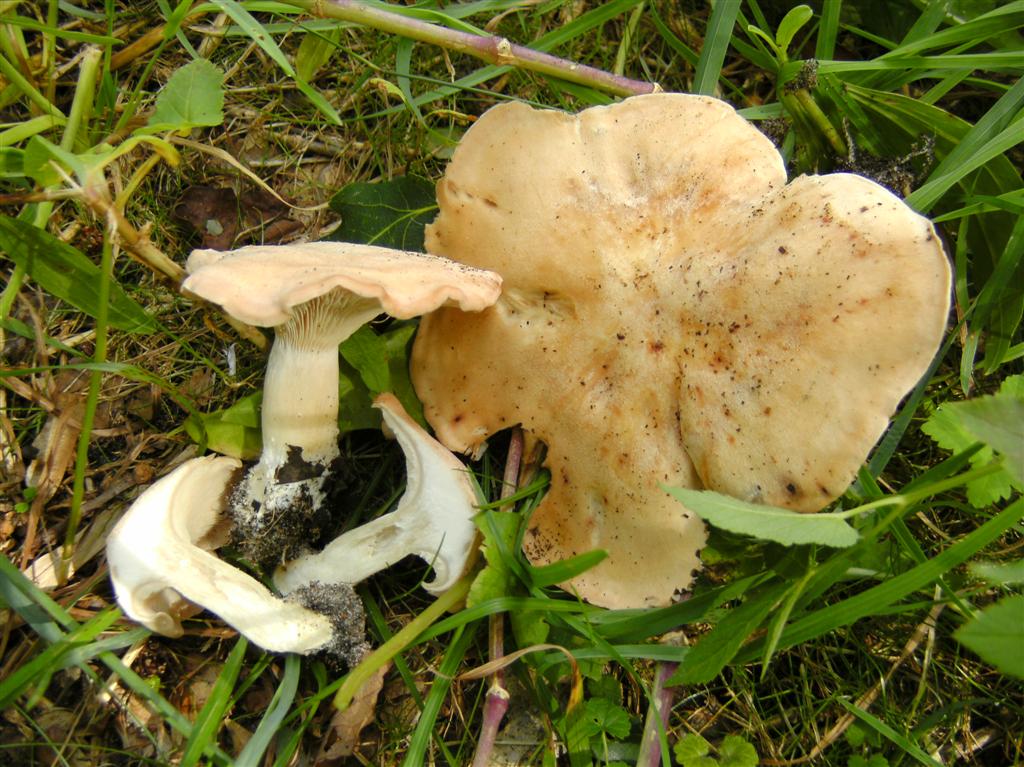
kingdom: Fungi
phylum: Basidiomycota
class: Agaricomycetes
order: Agaricales
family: Entolomataceae
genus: Clitopilus
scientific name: Clitopilus geminus
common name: kødfarvet troldhat
